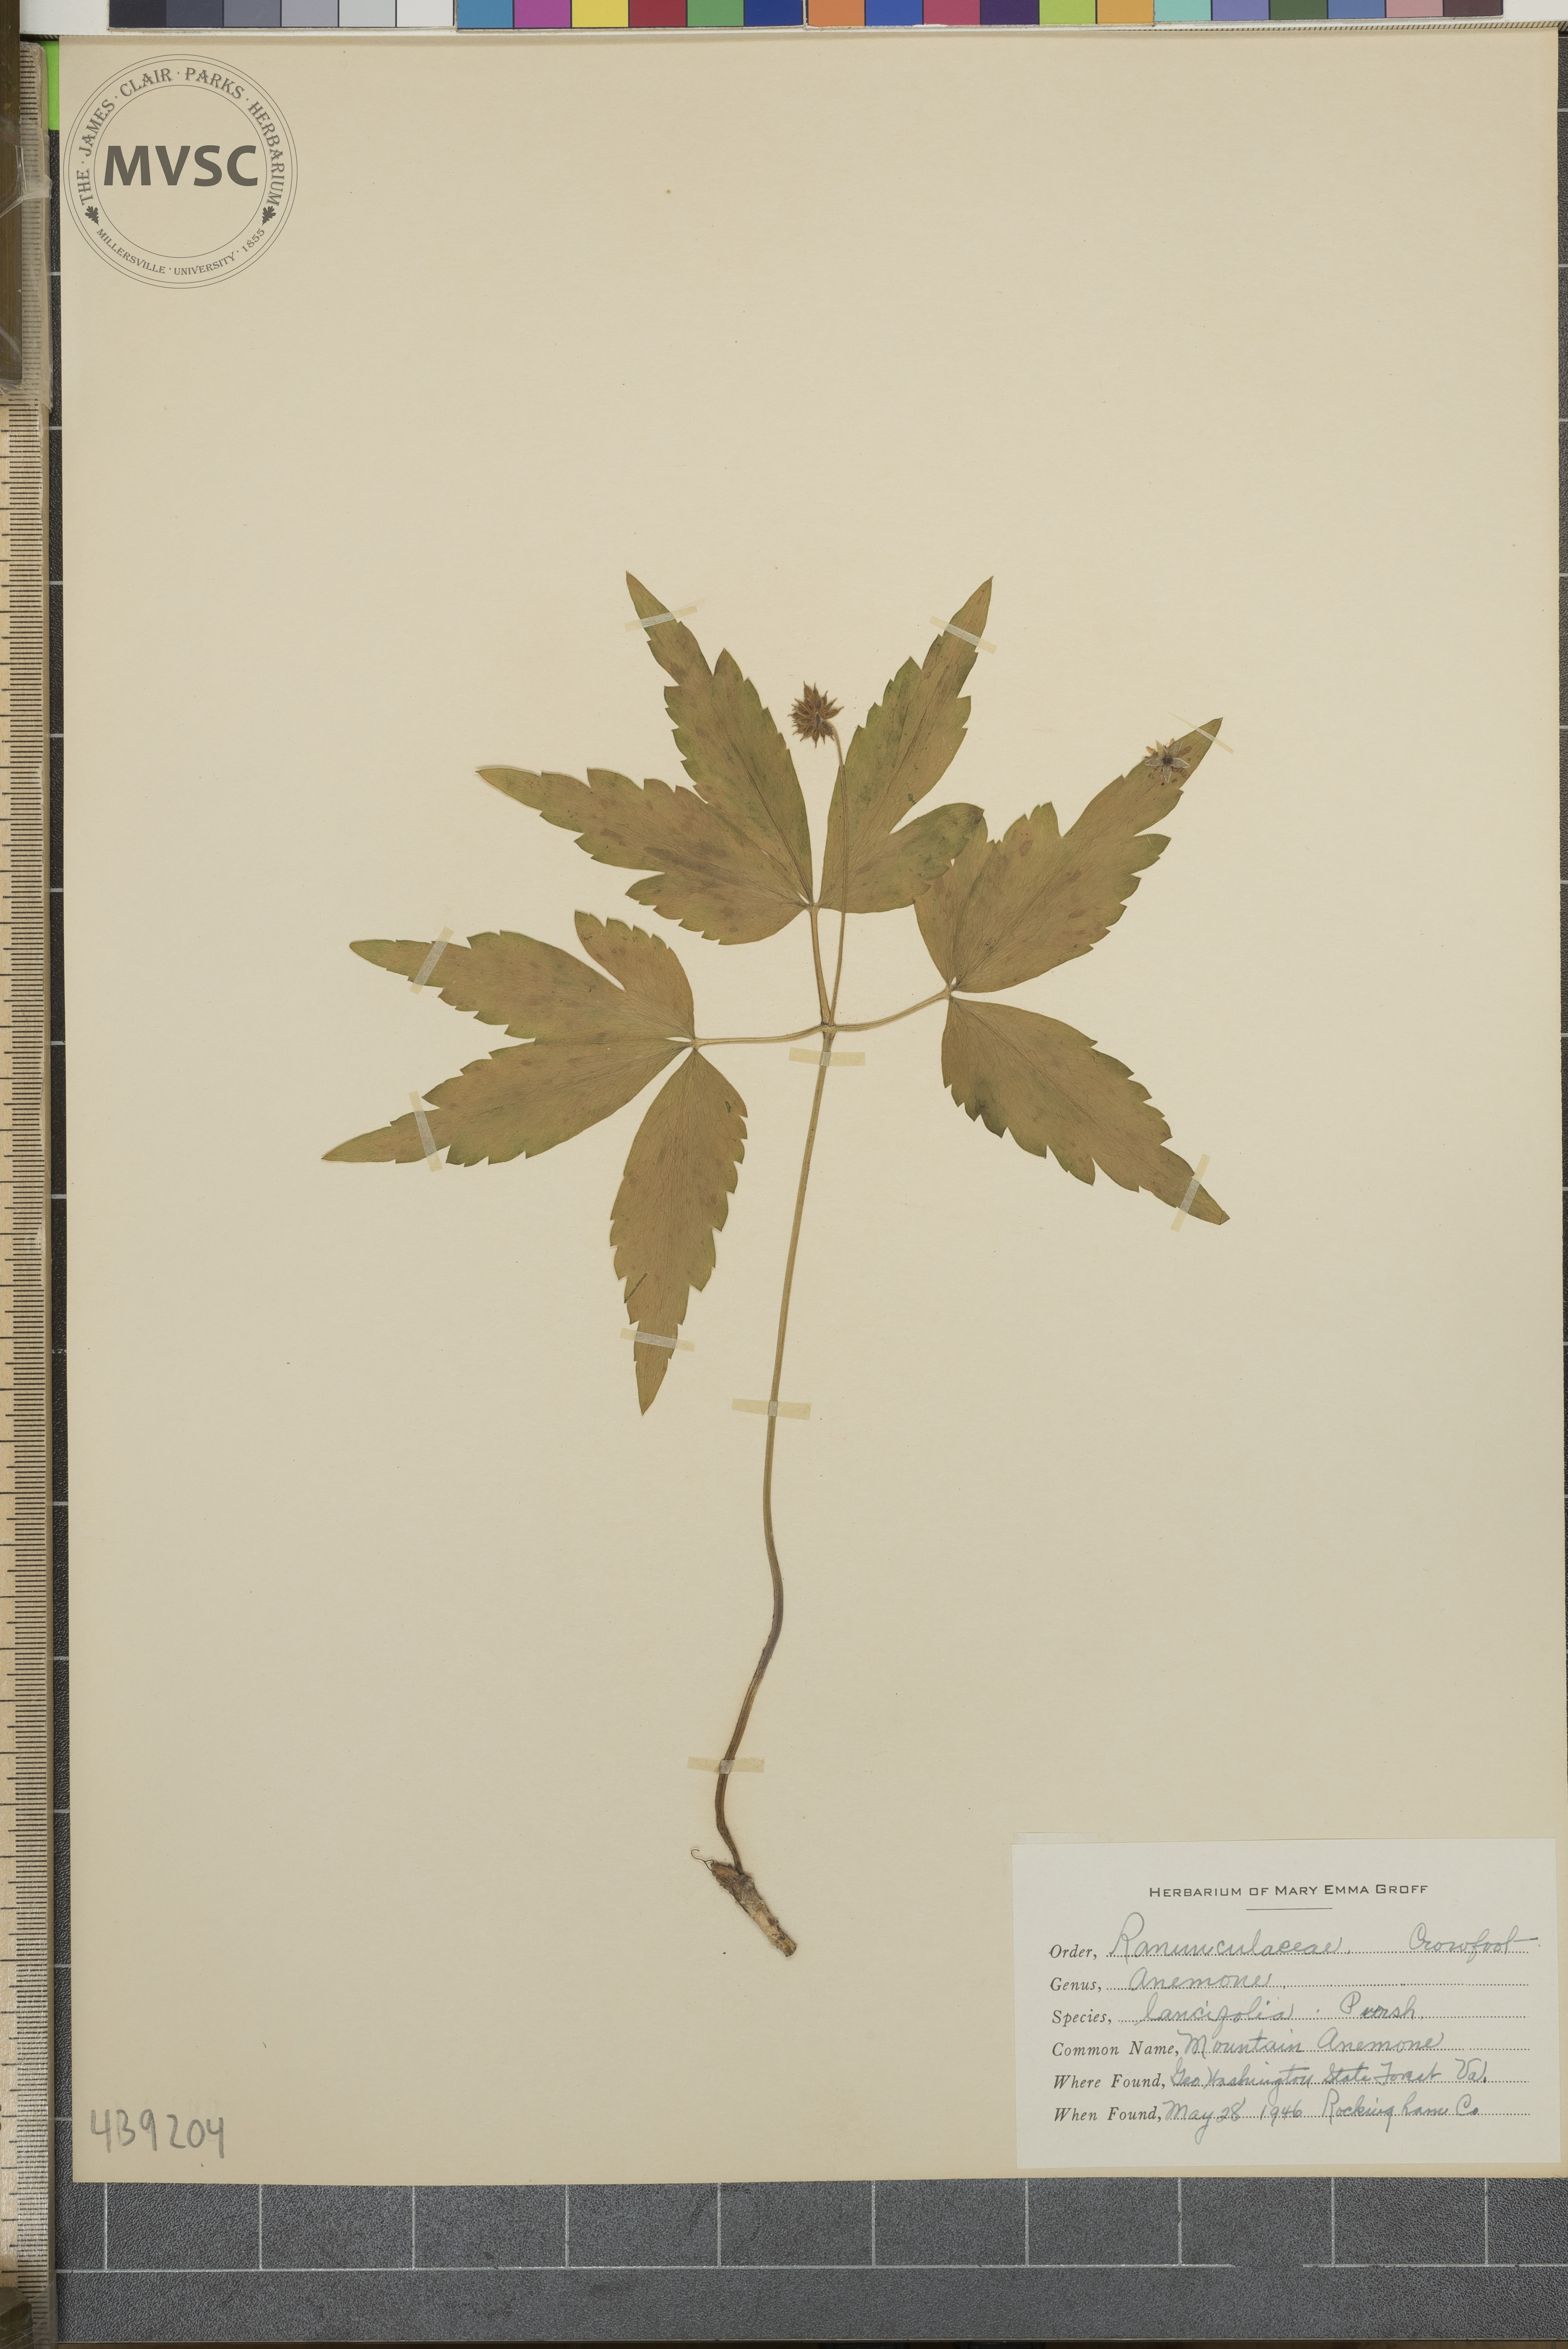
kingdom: Plantae
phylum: Tracheophyta
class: Magnoliopsida
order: Ranunculales
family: Ranunculaceae
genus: Anemone
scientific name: Anemone lancifolia
